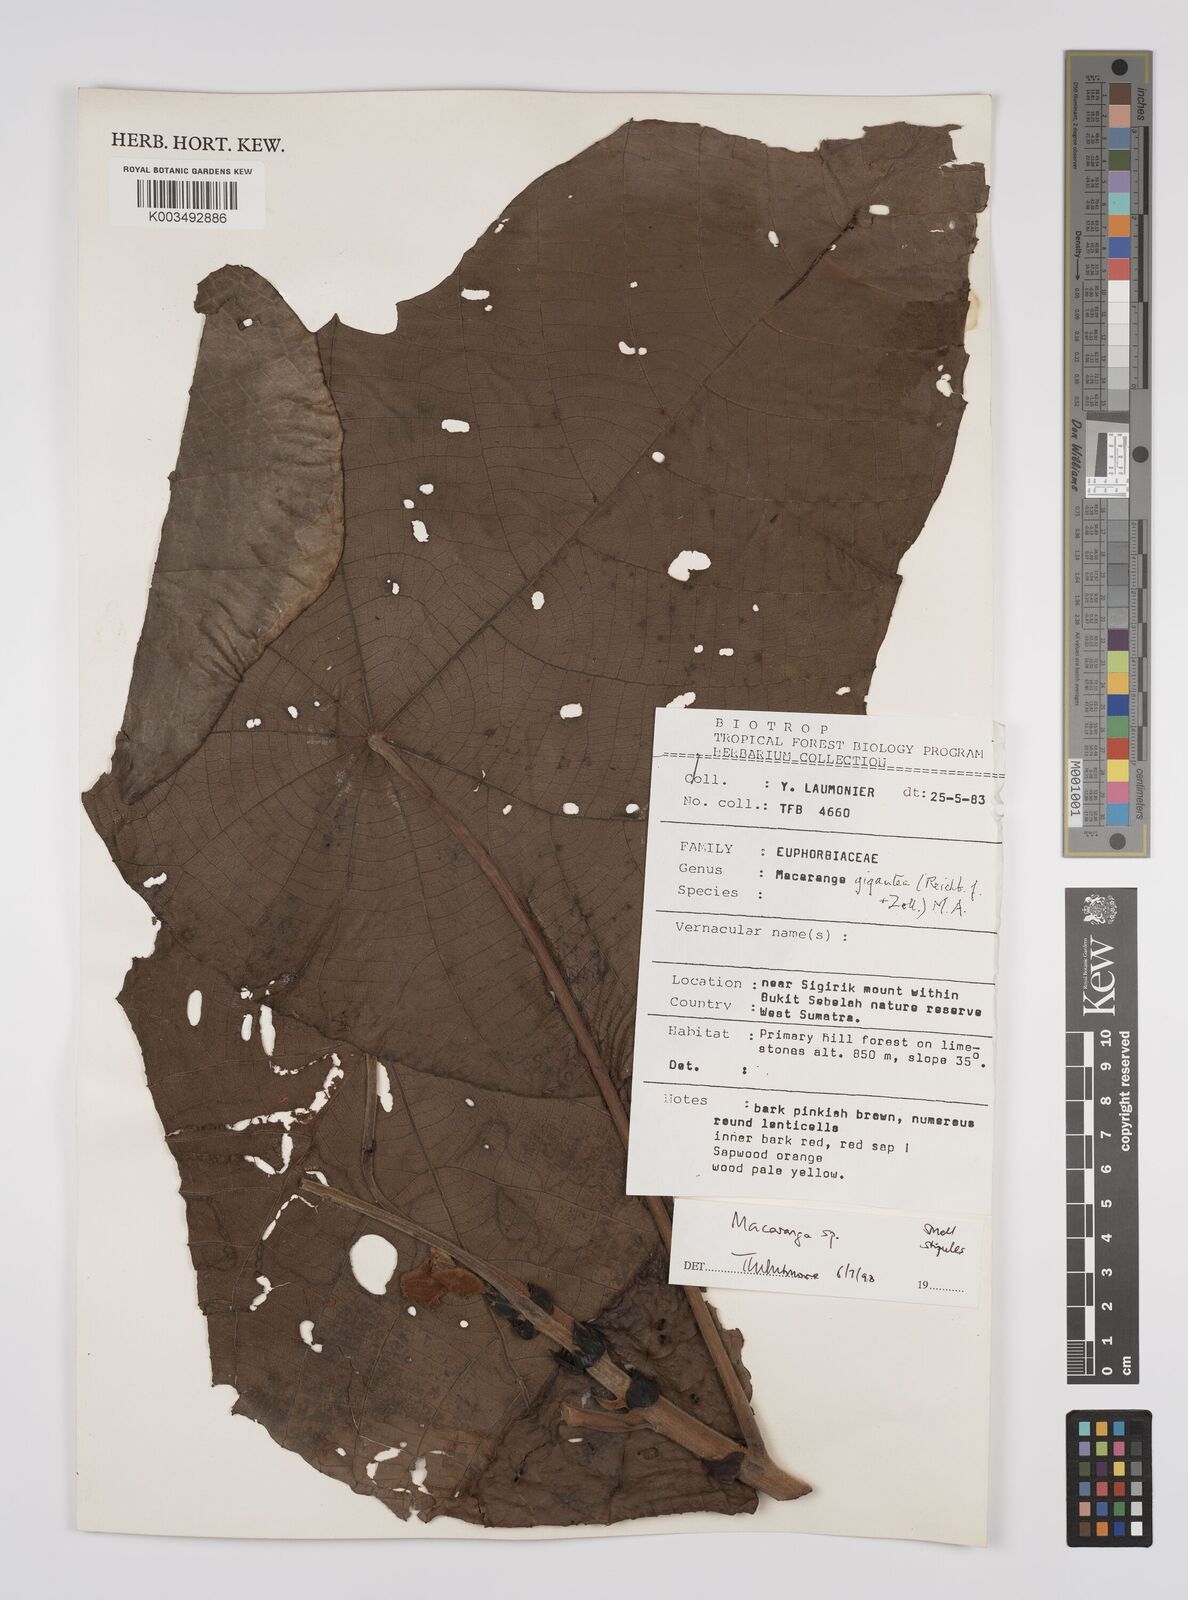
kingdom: Plantae
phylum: Tracheophyta
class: Magnoliopsida
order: Malpighiales
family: Euphorbiaceae
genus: Macaranga
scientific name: Macaranga gigantea
